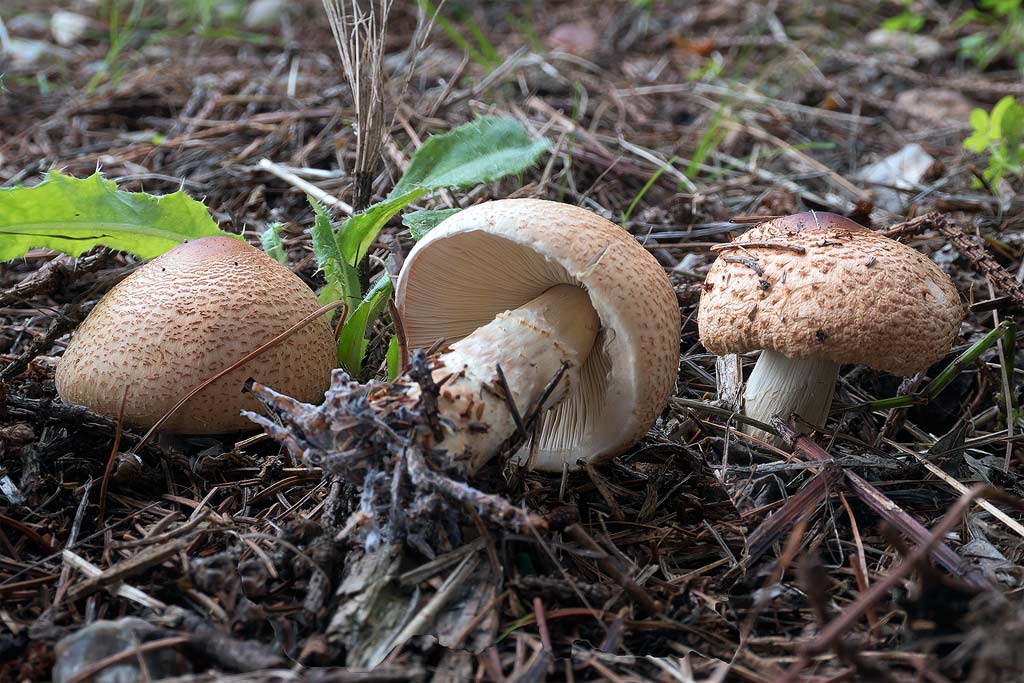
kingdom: Fungi
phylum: Basidiomycota
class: Agaricomycetes
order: Agaricales
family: Agaricaceae
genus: Lepiota
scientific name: Lepiota ochraceofulva
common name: sødtduftende parasolhat
